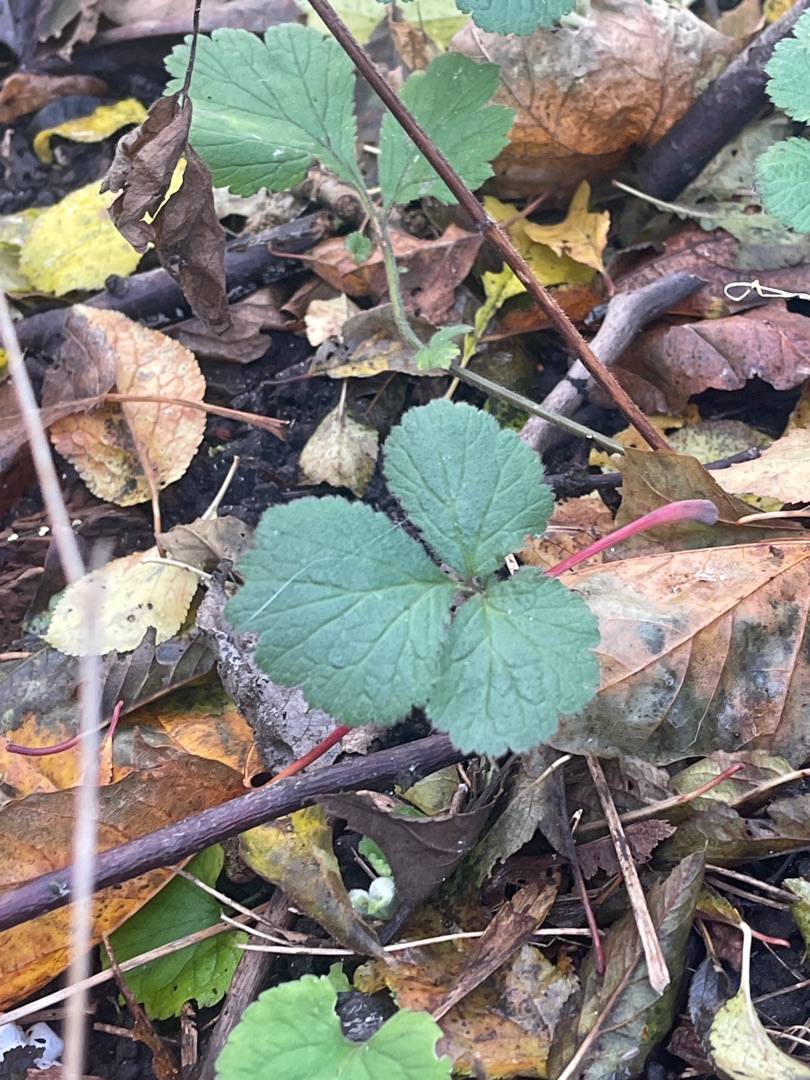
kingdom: Plantae
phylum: Tracheophyta
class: Magnoliopsida
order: Rosales
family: Rosaceae
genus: Geum
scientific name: Geum urbanum
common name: Feber-nellikerod
